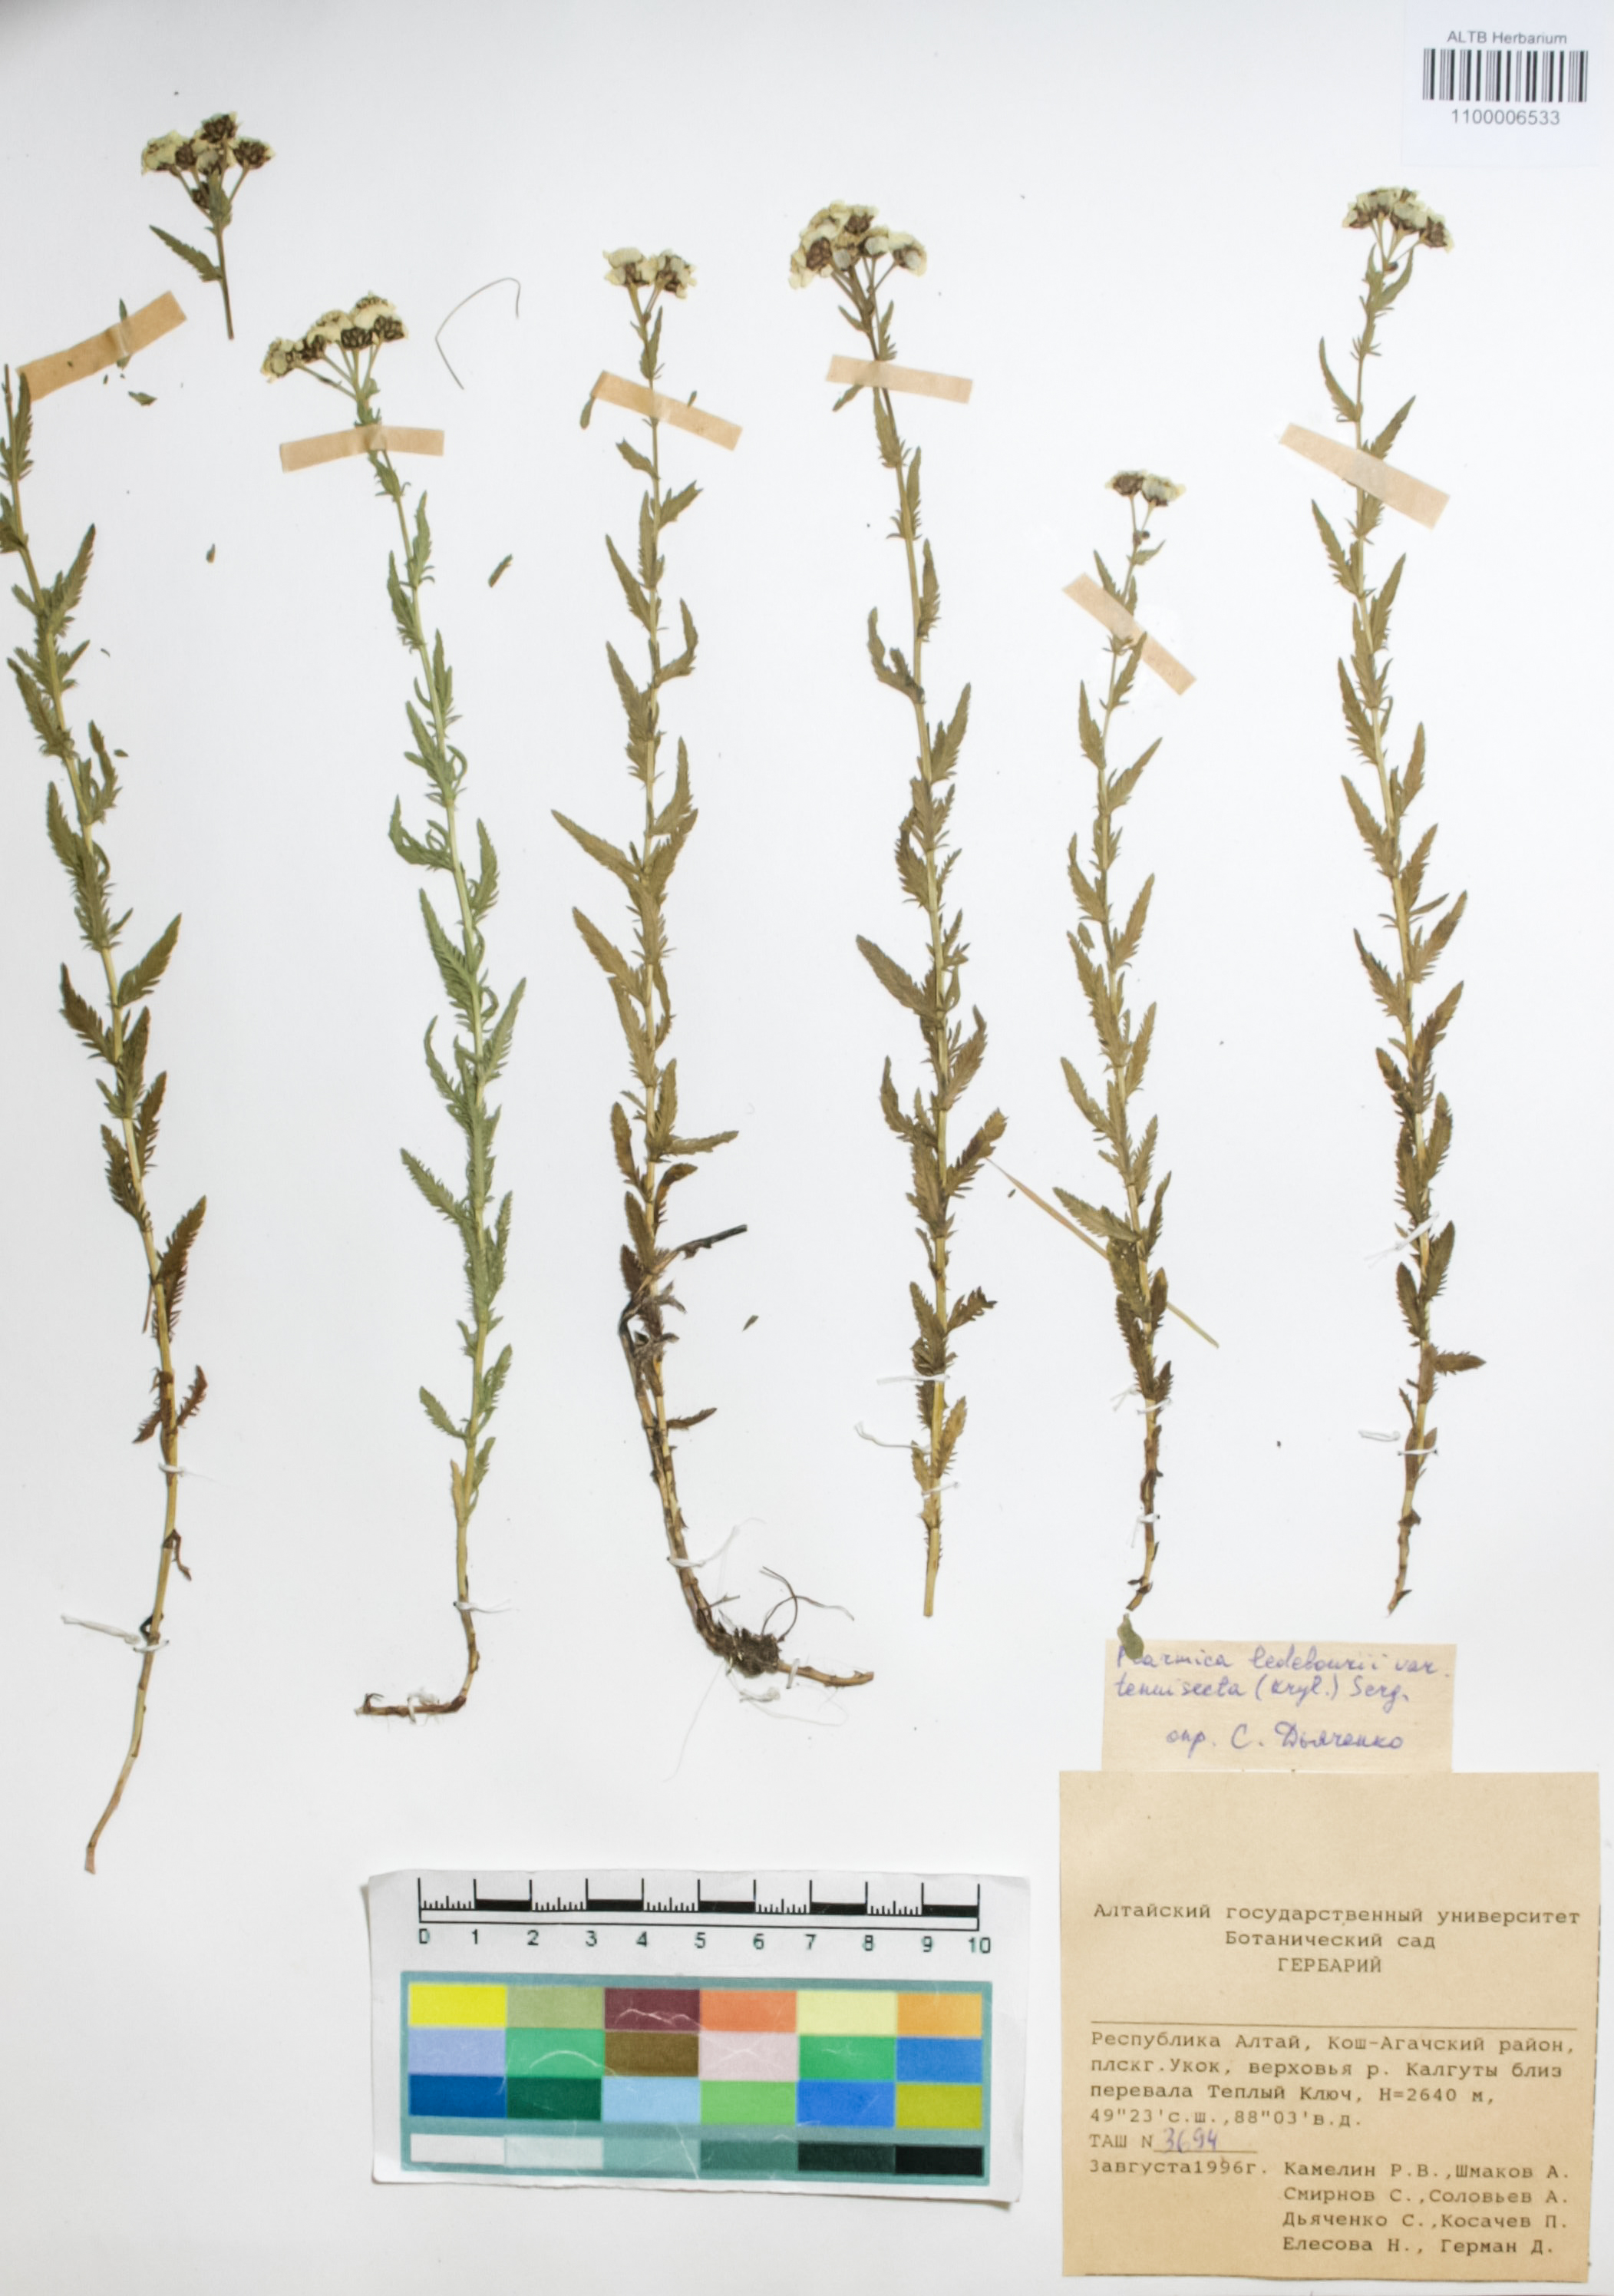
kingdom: Plantae
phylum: Tracheophyta
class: Magnoliopsida
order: Asterales
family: Asteraceae
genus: Achillea
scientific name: Achillea ledebourii
